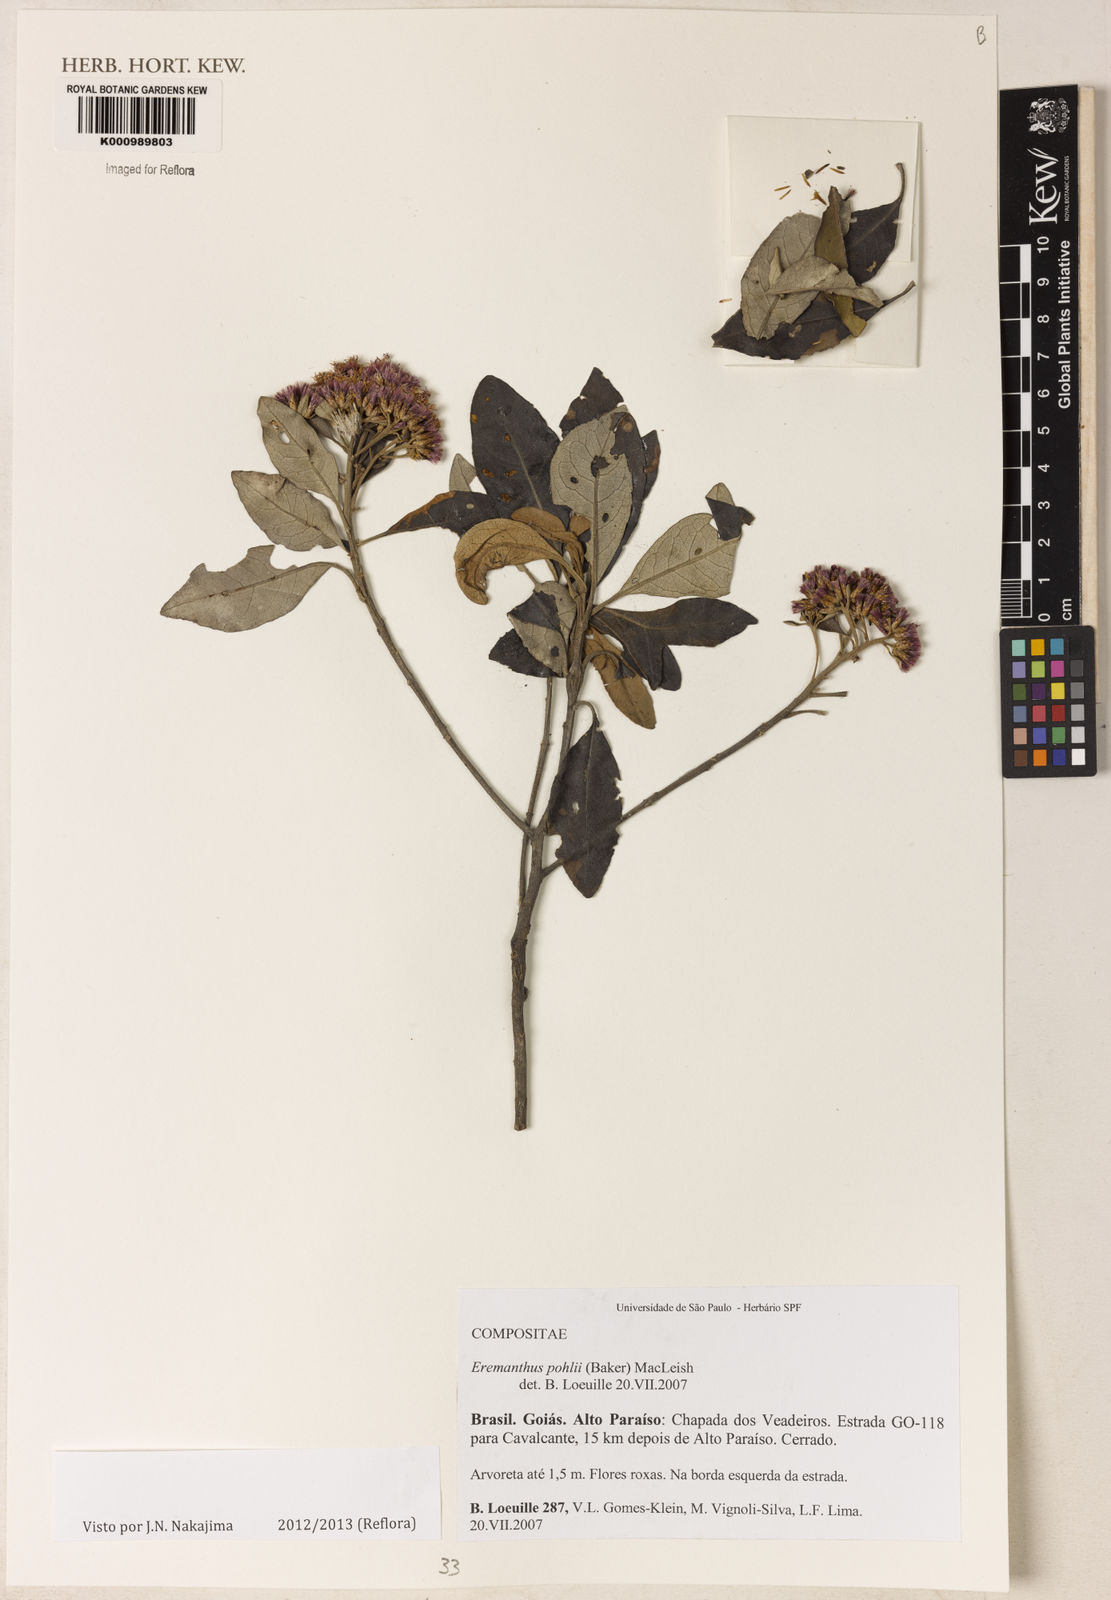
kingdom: Plantae
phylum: Tracheophyta
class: Magnoliopsida
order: Asterales
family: Asteraceae
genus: Eremanthus
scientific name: Eremanthus capitatus
